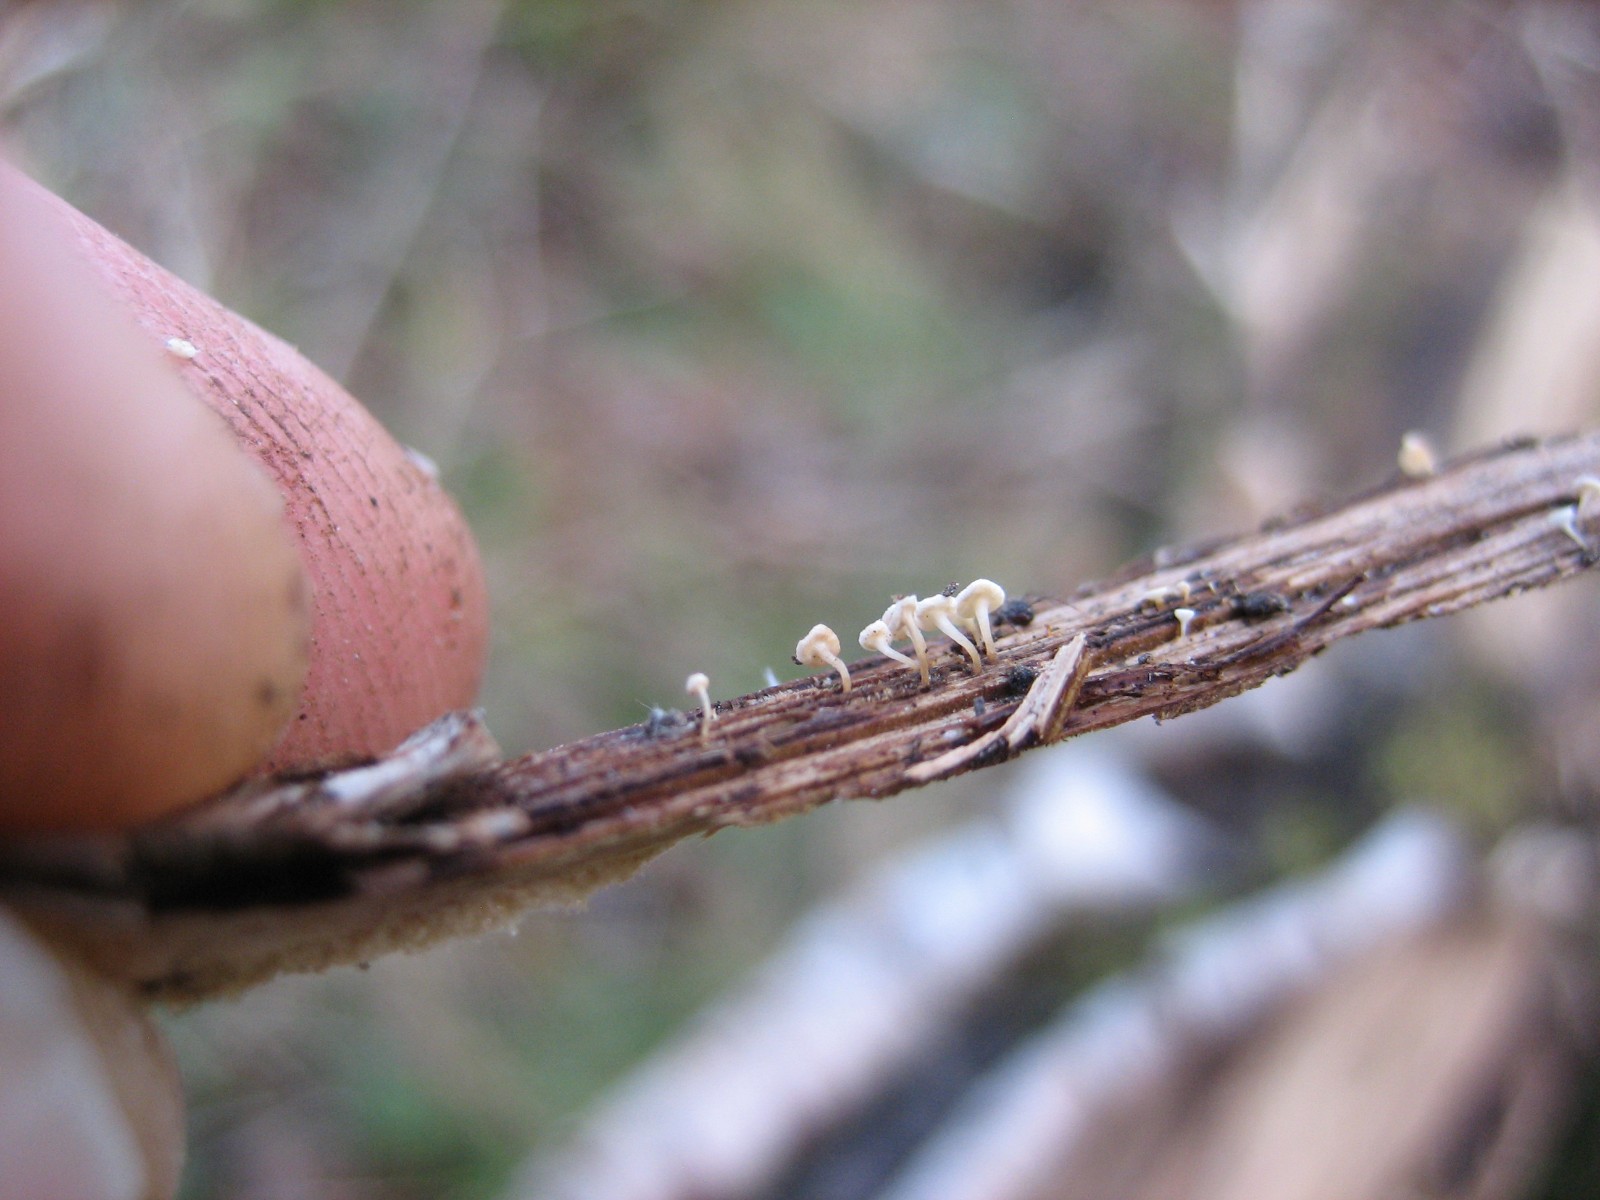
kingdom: Fungi
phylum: Ascomycota
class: Leotiomycetes
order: Helotiales
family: Helotiaceae
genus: Hymenoscyphus
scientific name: Hymenoscyphus
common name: stilkskive
